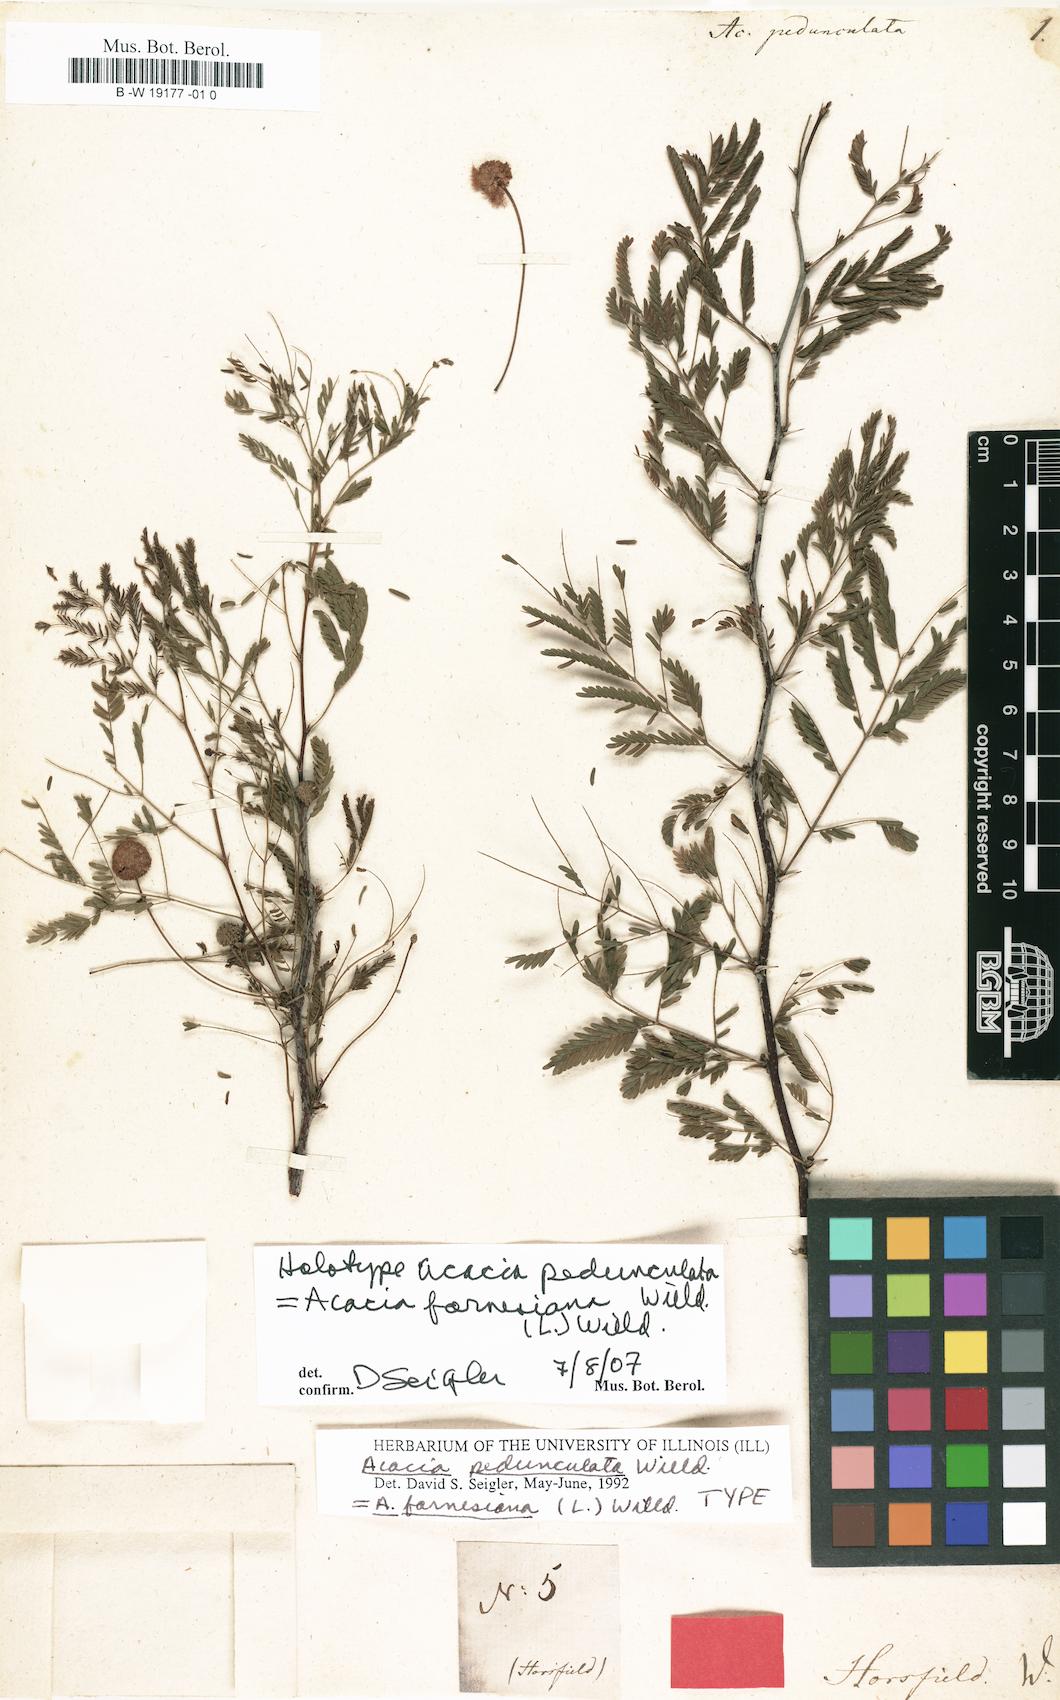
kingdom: Plantae
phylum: Tracheophyta
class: Magnoliopsida
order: Fabales
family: Fabaceae
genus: Vachellia
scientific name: Vachellia farnesiana
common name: Sweet acacia
